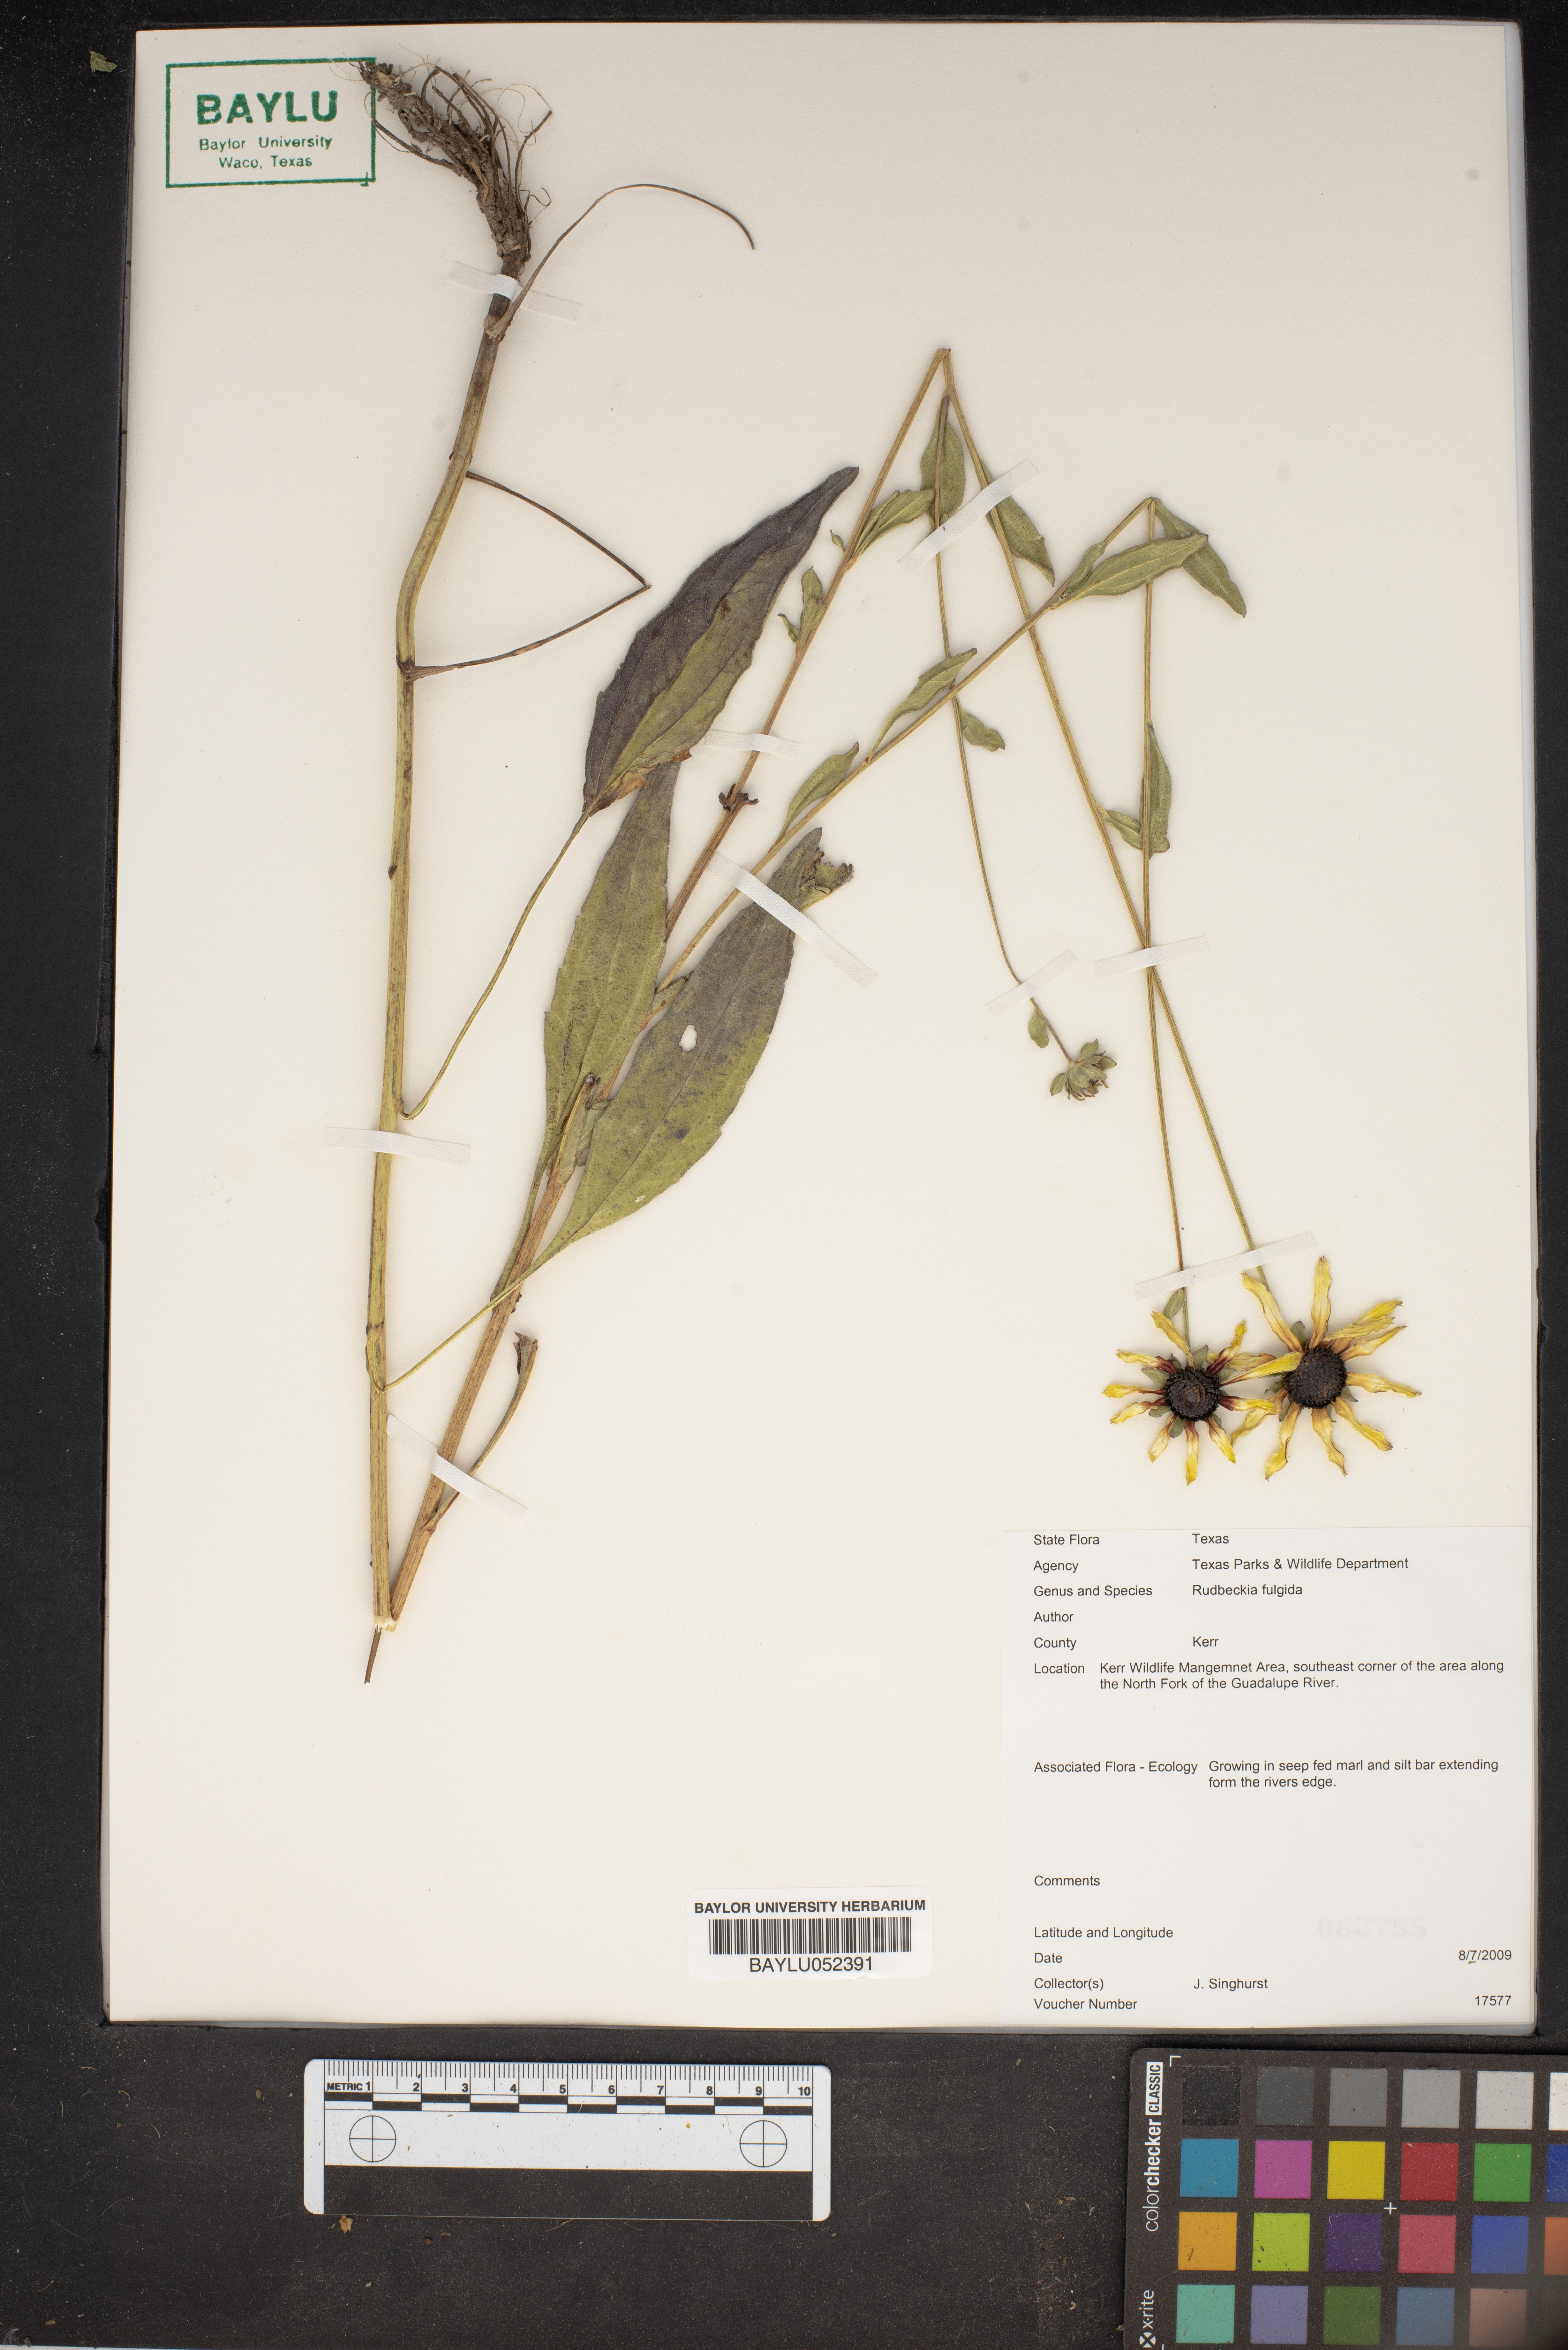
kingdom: Plantae
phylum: Tracheophyta
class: Magnoliopsida
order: Asterales
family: Asteraceae
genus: Rudbeckia
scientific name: Rudbeckia fulgida
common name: Perennial coneflower
